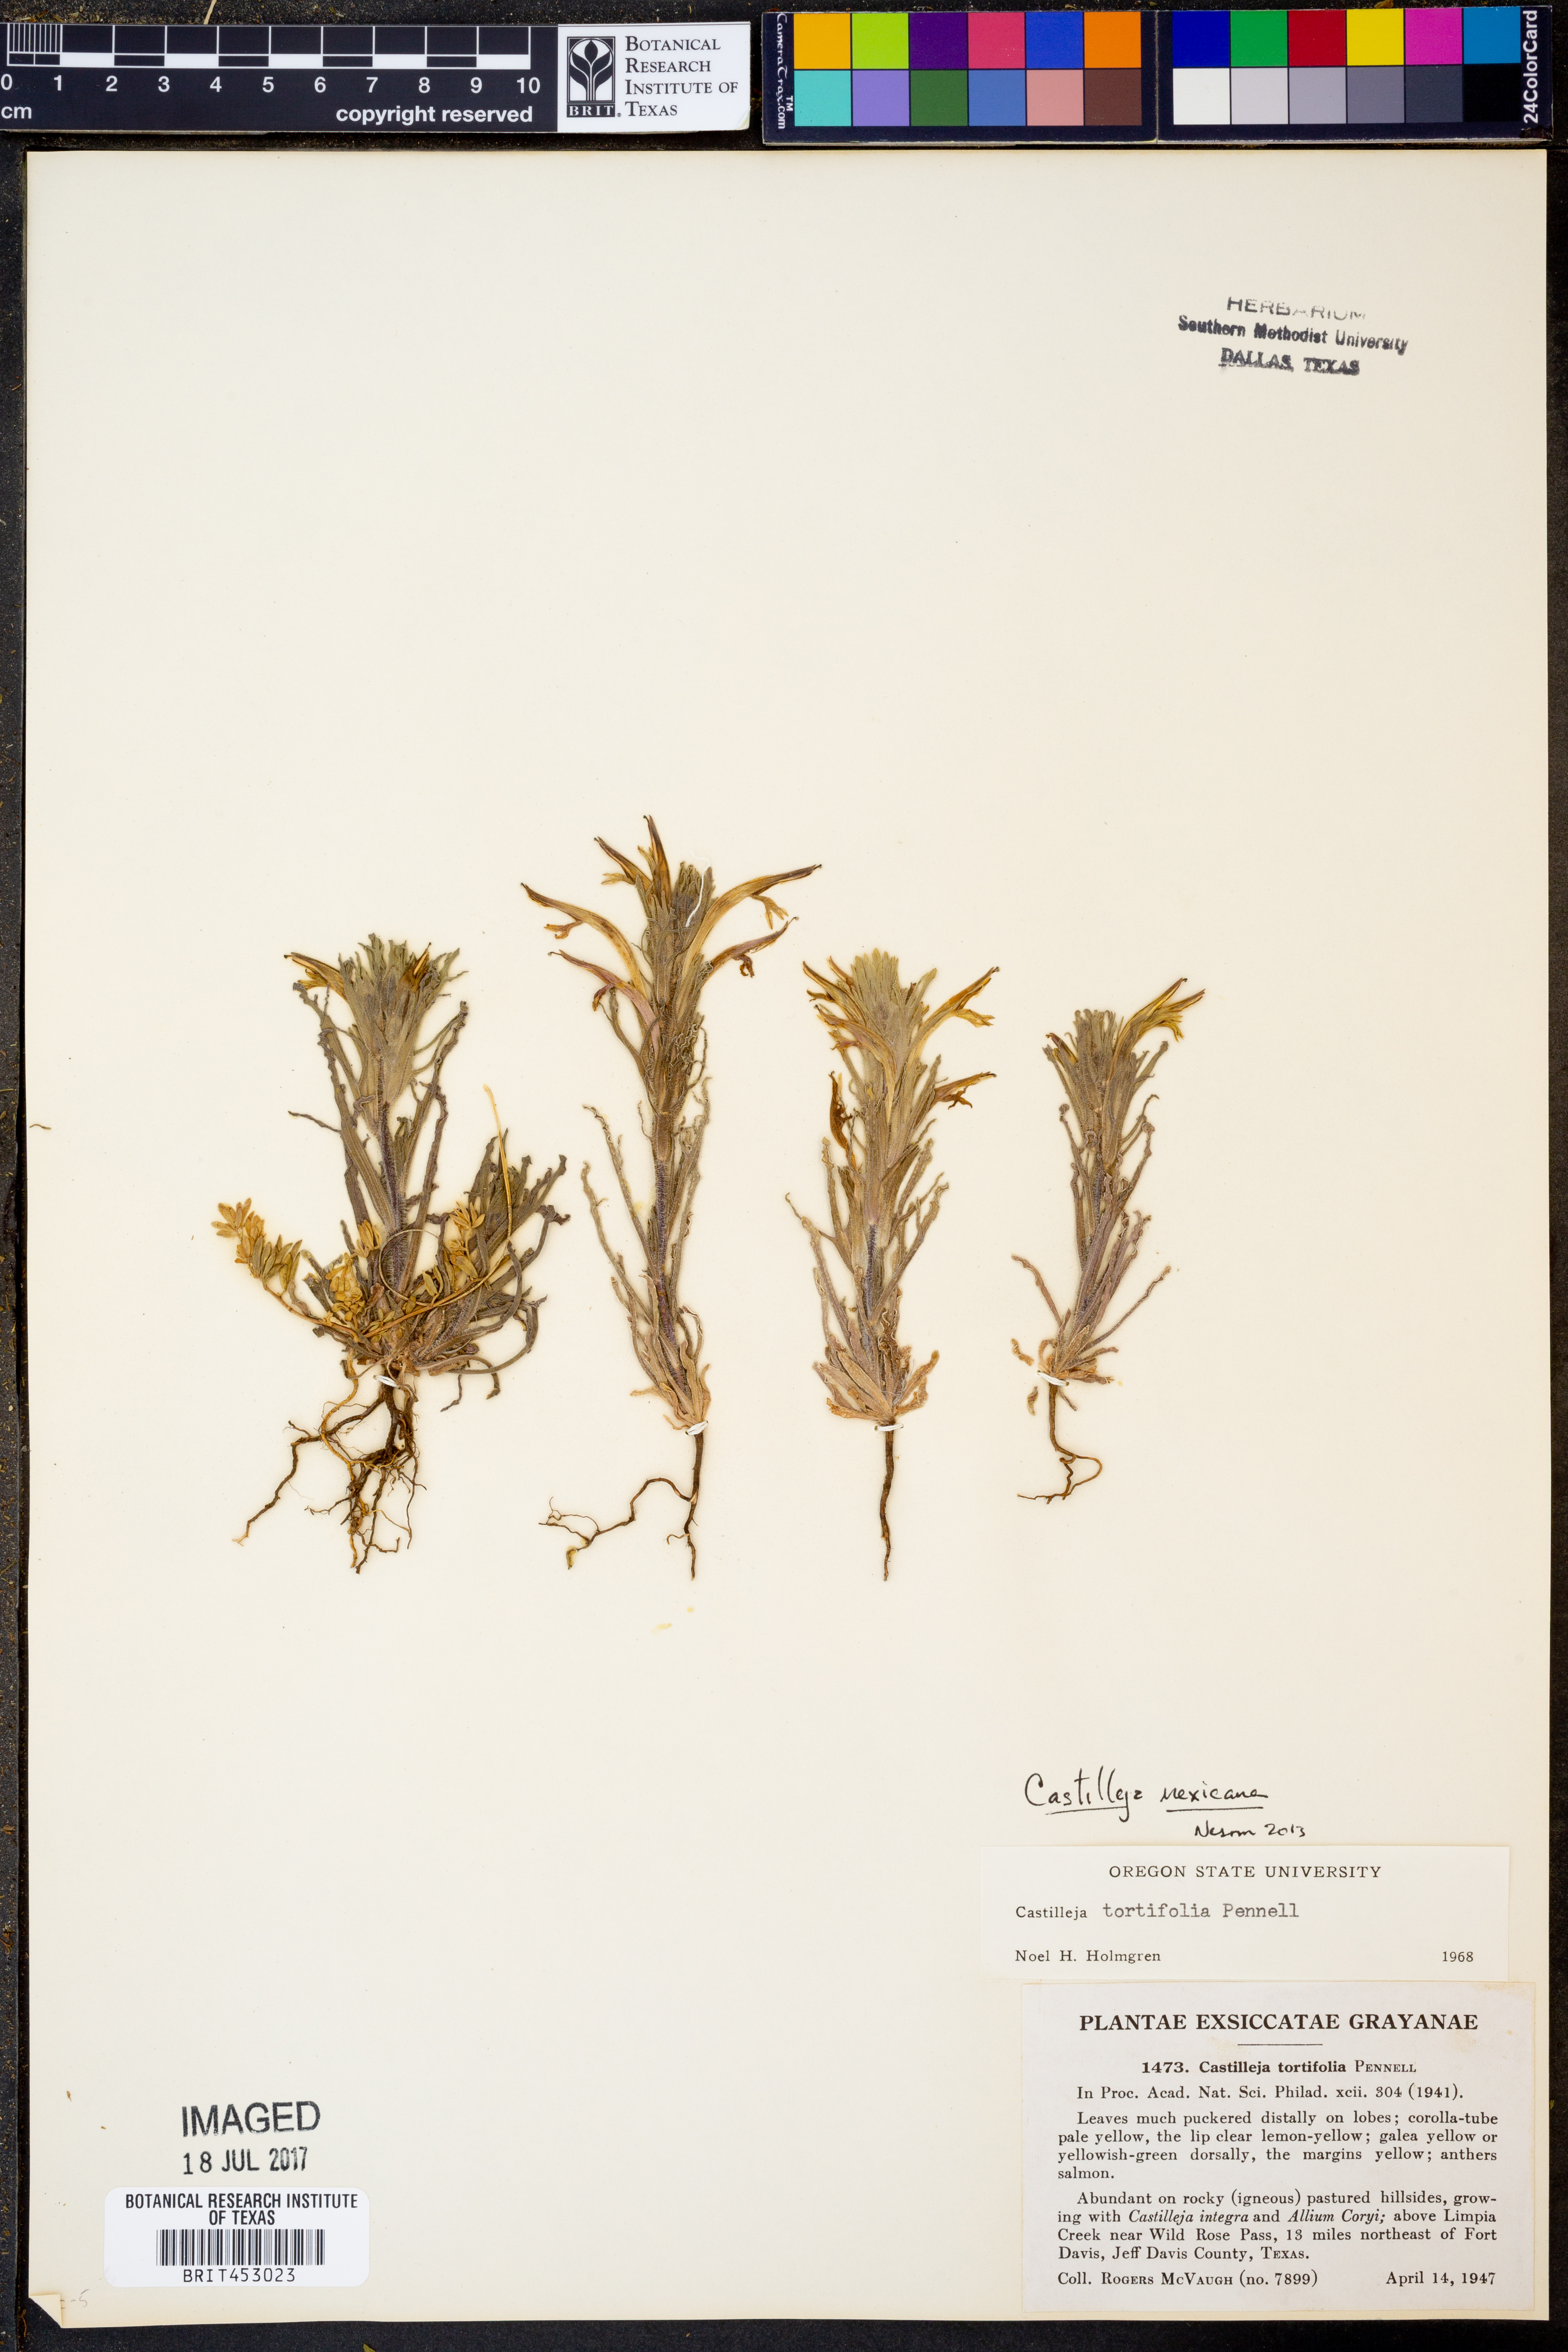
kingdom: Plantae
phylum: Tracheophyta
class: Magnoliopsida
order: Lamiales
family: Orobanchaceae
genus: Castilleja
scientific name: Castilleja mexicana
